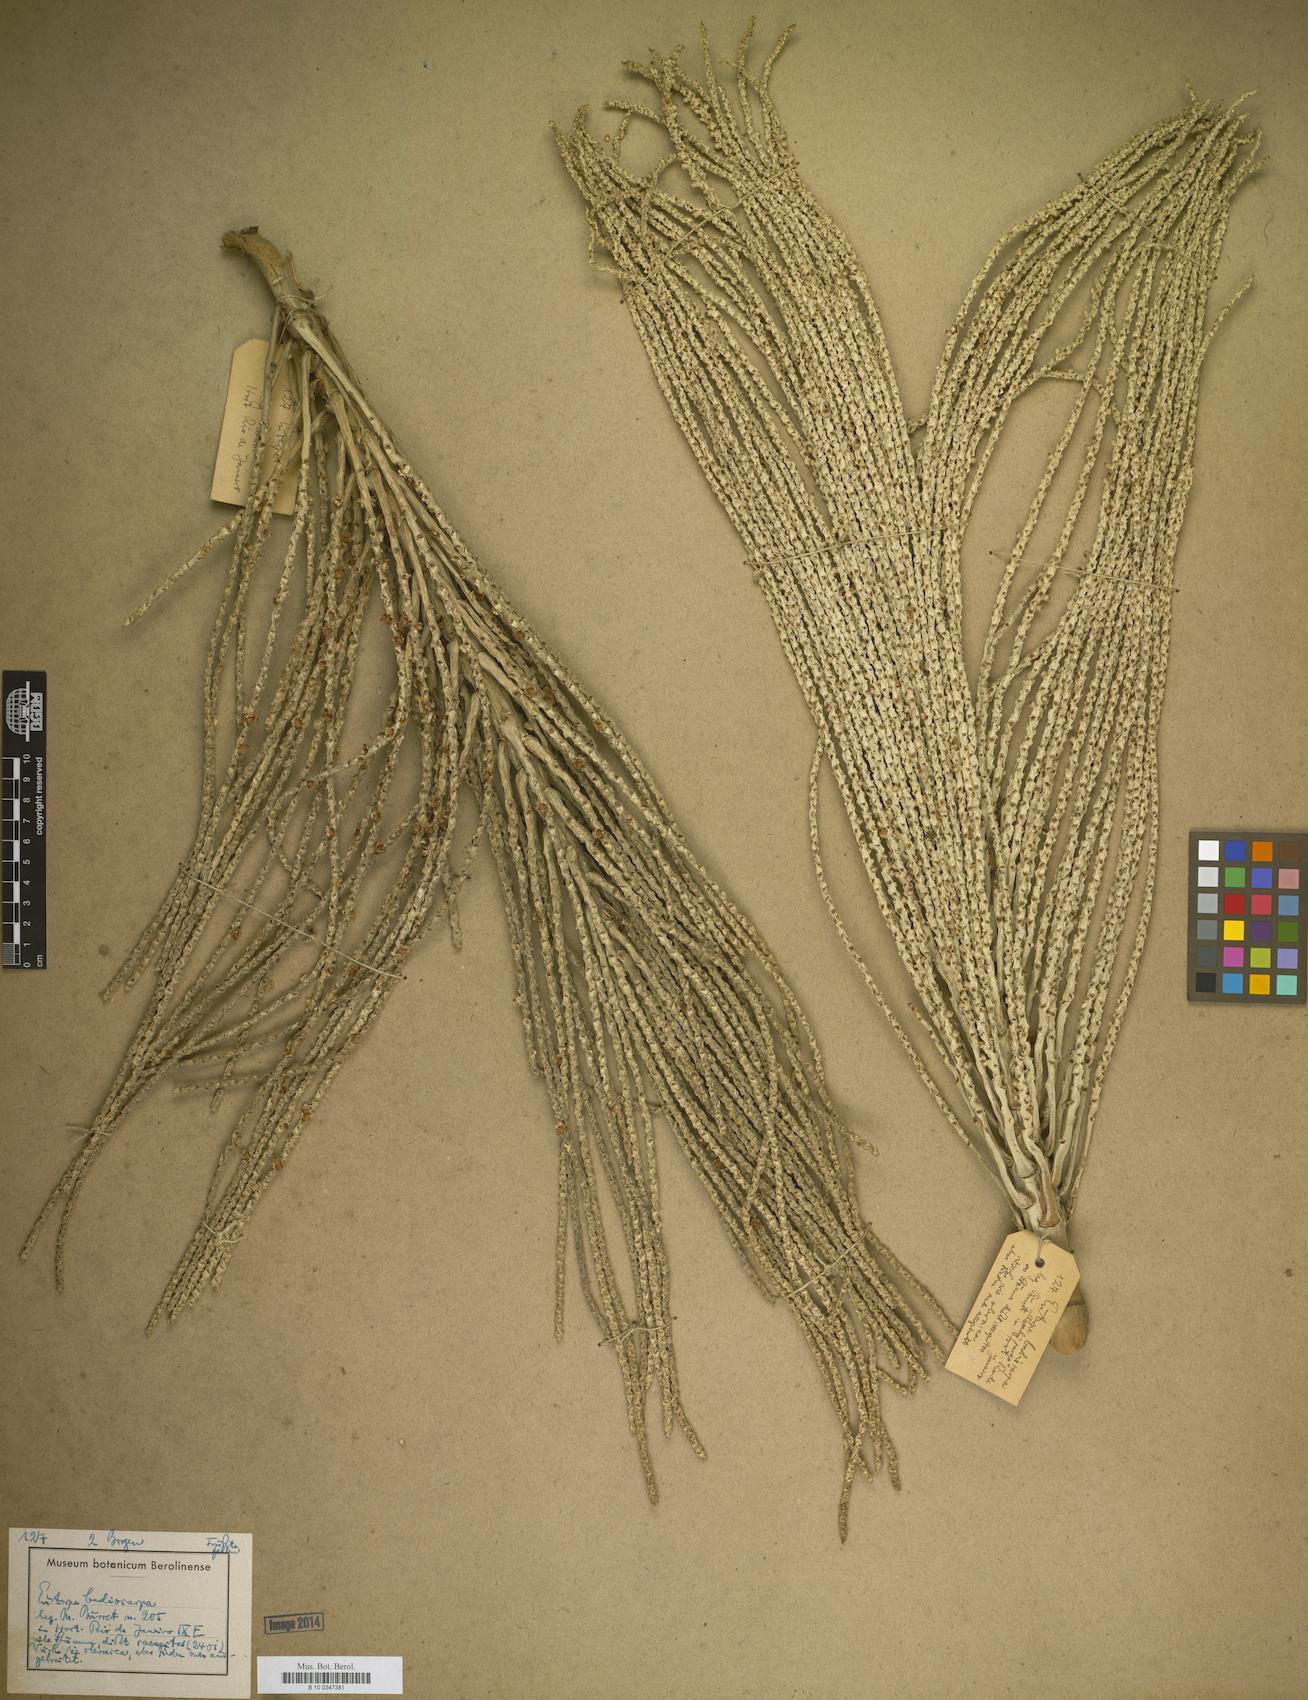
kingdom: Plantae
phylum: Tracheophyta
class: Liliopsida
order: Arecales
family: Arecaceae
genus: Euterpe
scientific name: Euterpe oleracea
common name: Assai palm
